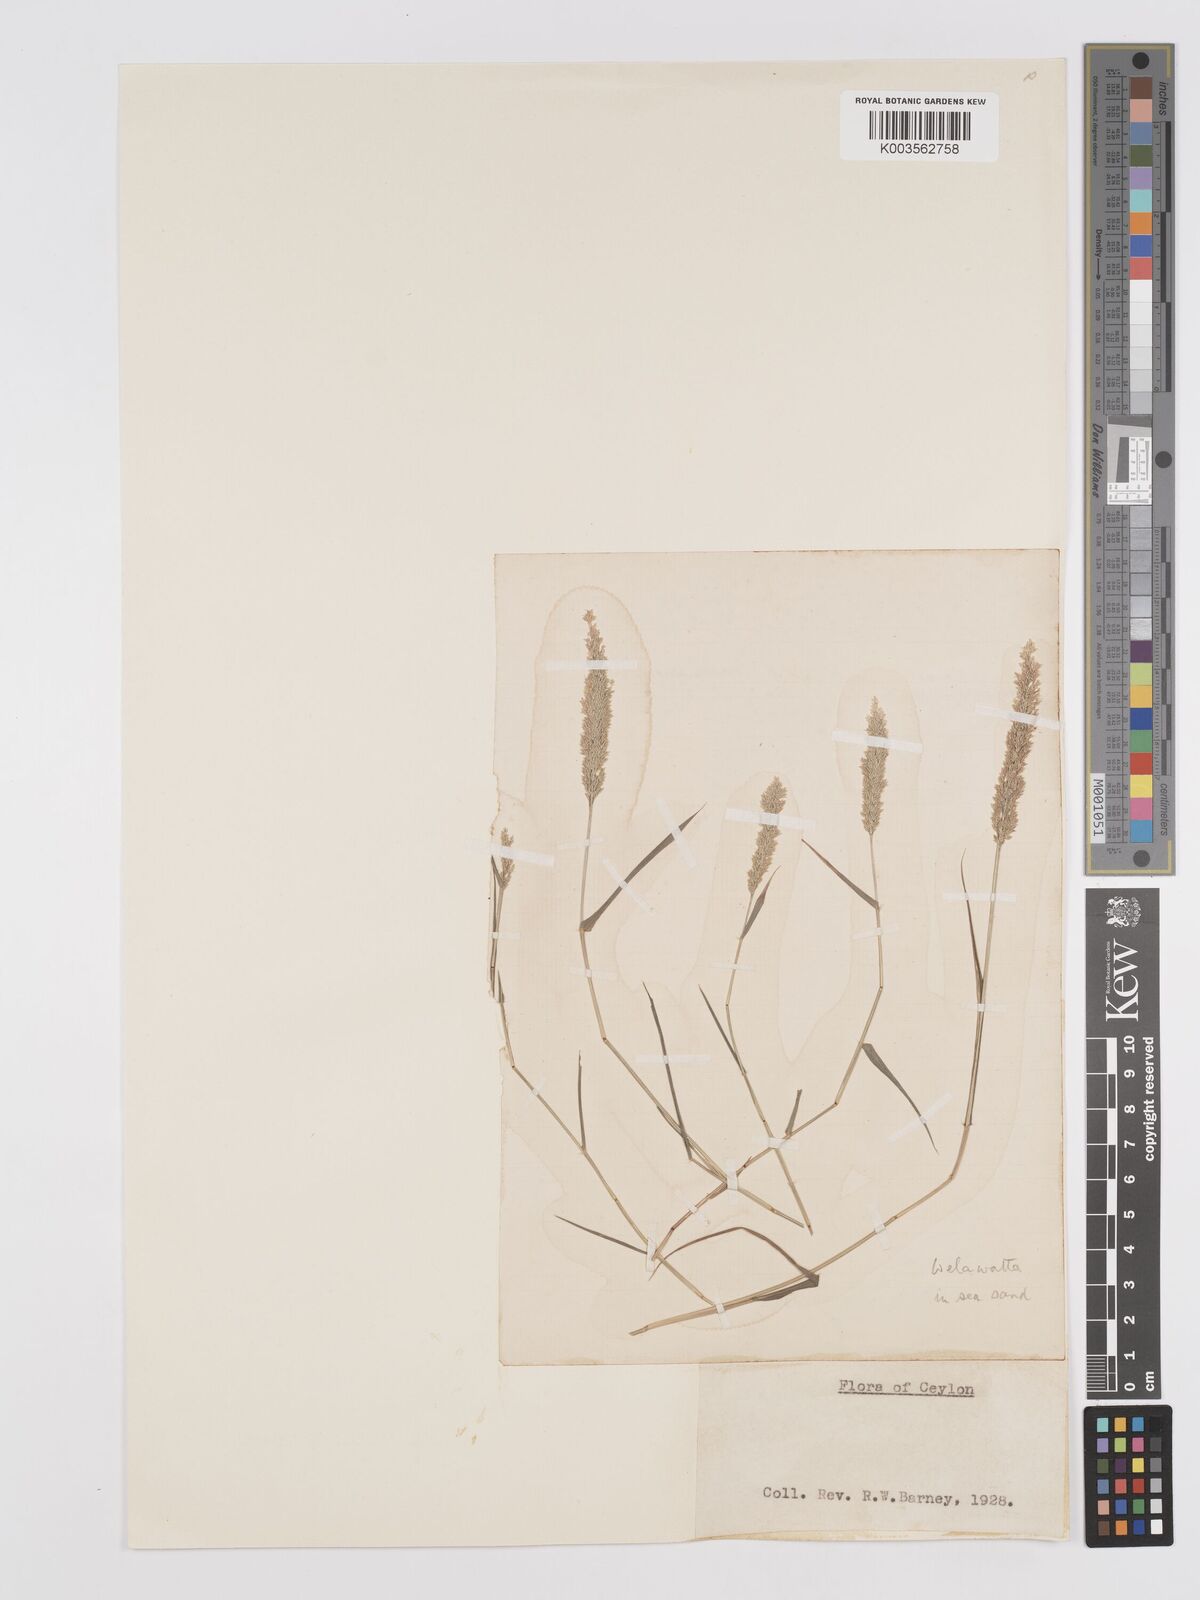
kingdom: Plantae
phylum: Tracheophyta
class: Liliopsida
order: Poales
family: Poaceae
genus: Eragrostis
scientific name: Eragrostis riparia
